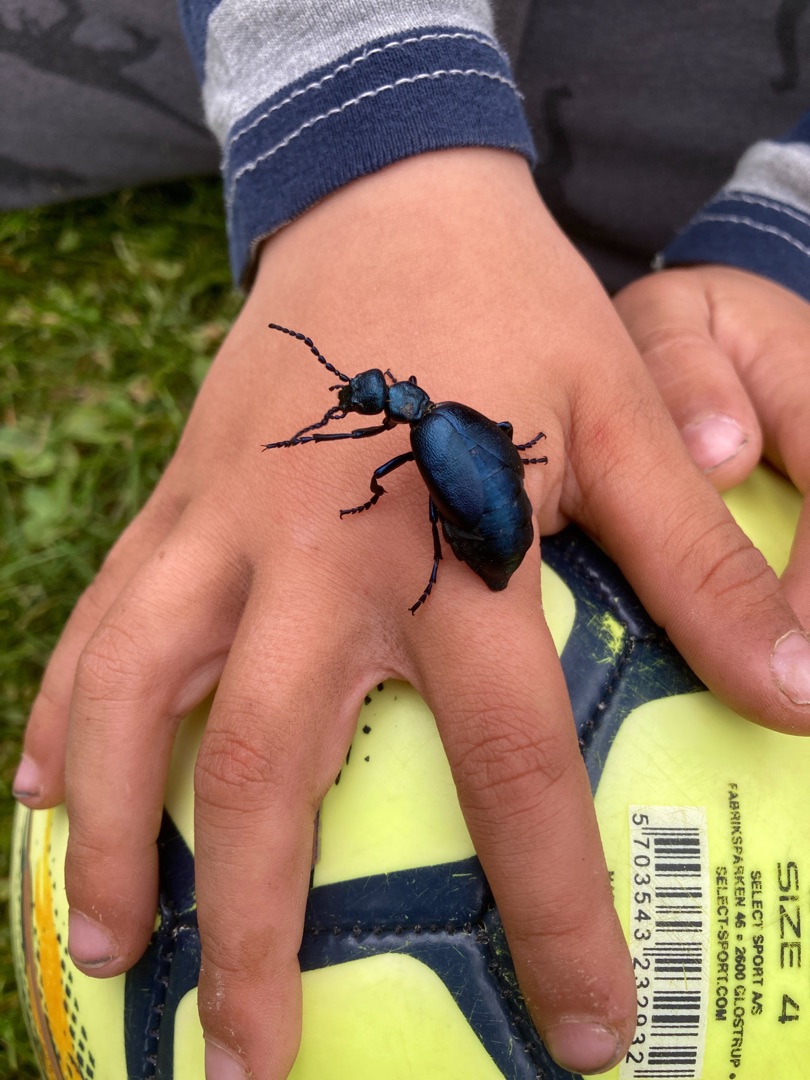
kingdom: Animalia
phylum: Arthropoda
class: Insecta
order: Coleoptera
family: Meloidae
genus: Meloe
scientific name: Meloe violaceus
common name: Blå oliebille
